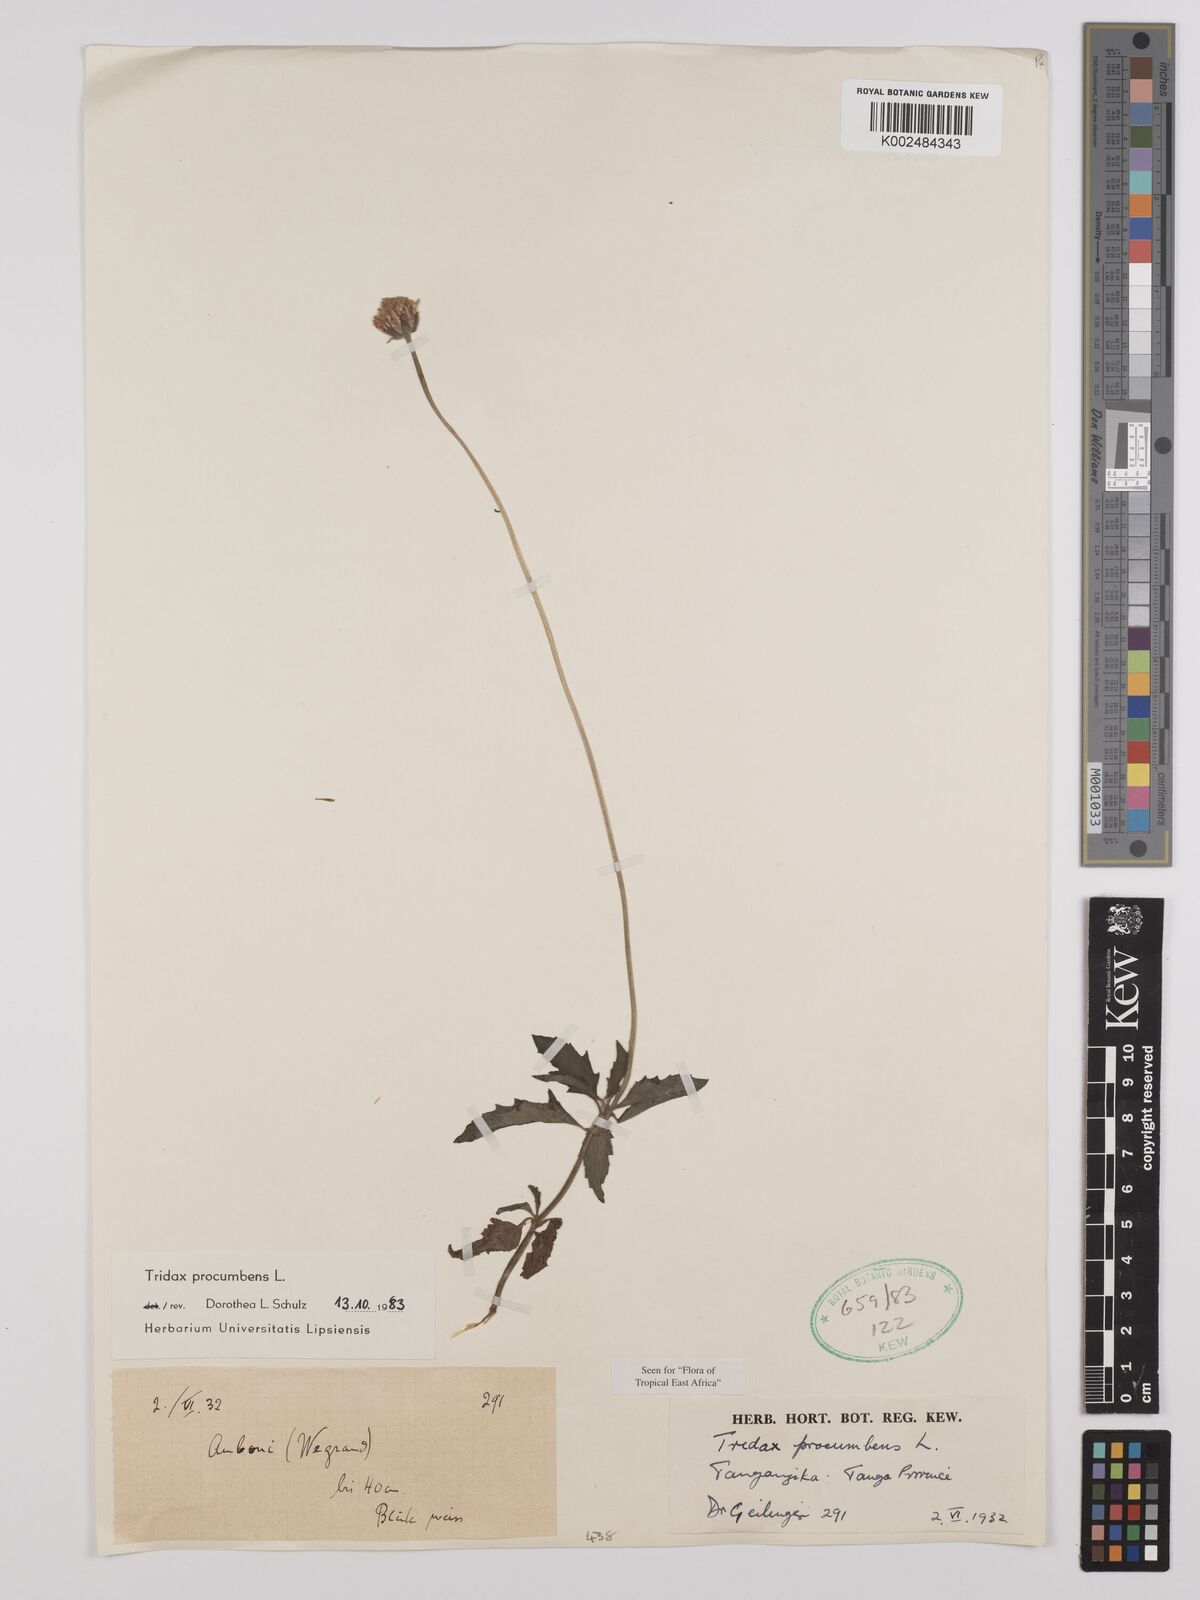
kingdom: Plantae
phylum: Tracheophyta
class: Magnoliopsida
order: Asterales
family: Asteraceae
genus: Tridax
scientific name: Tridax procumbens
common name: Coatbuttons
